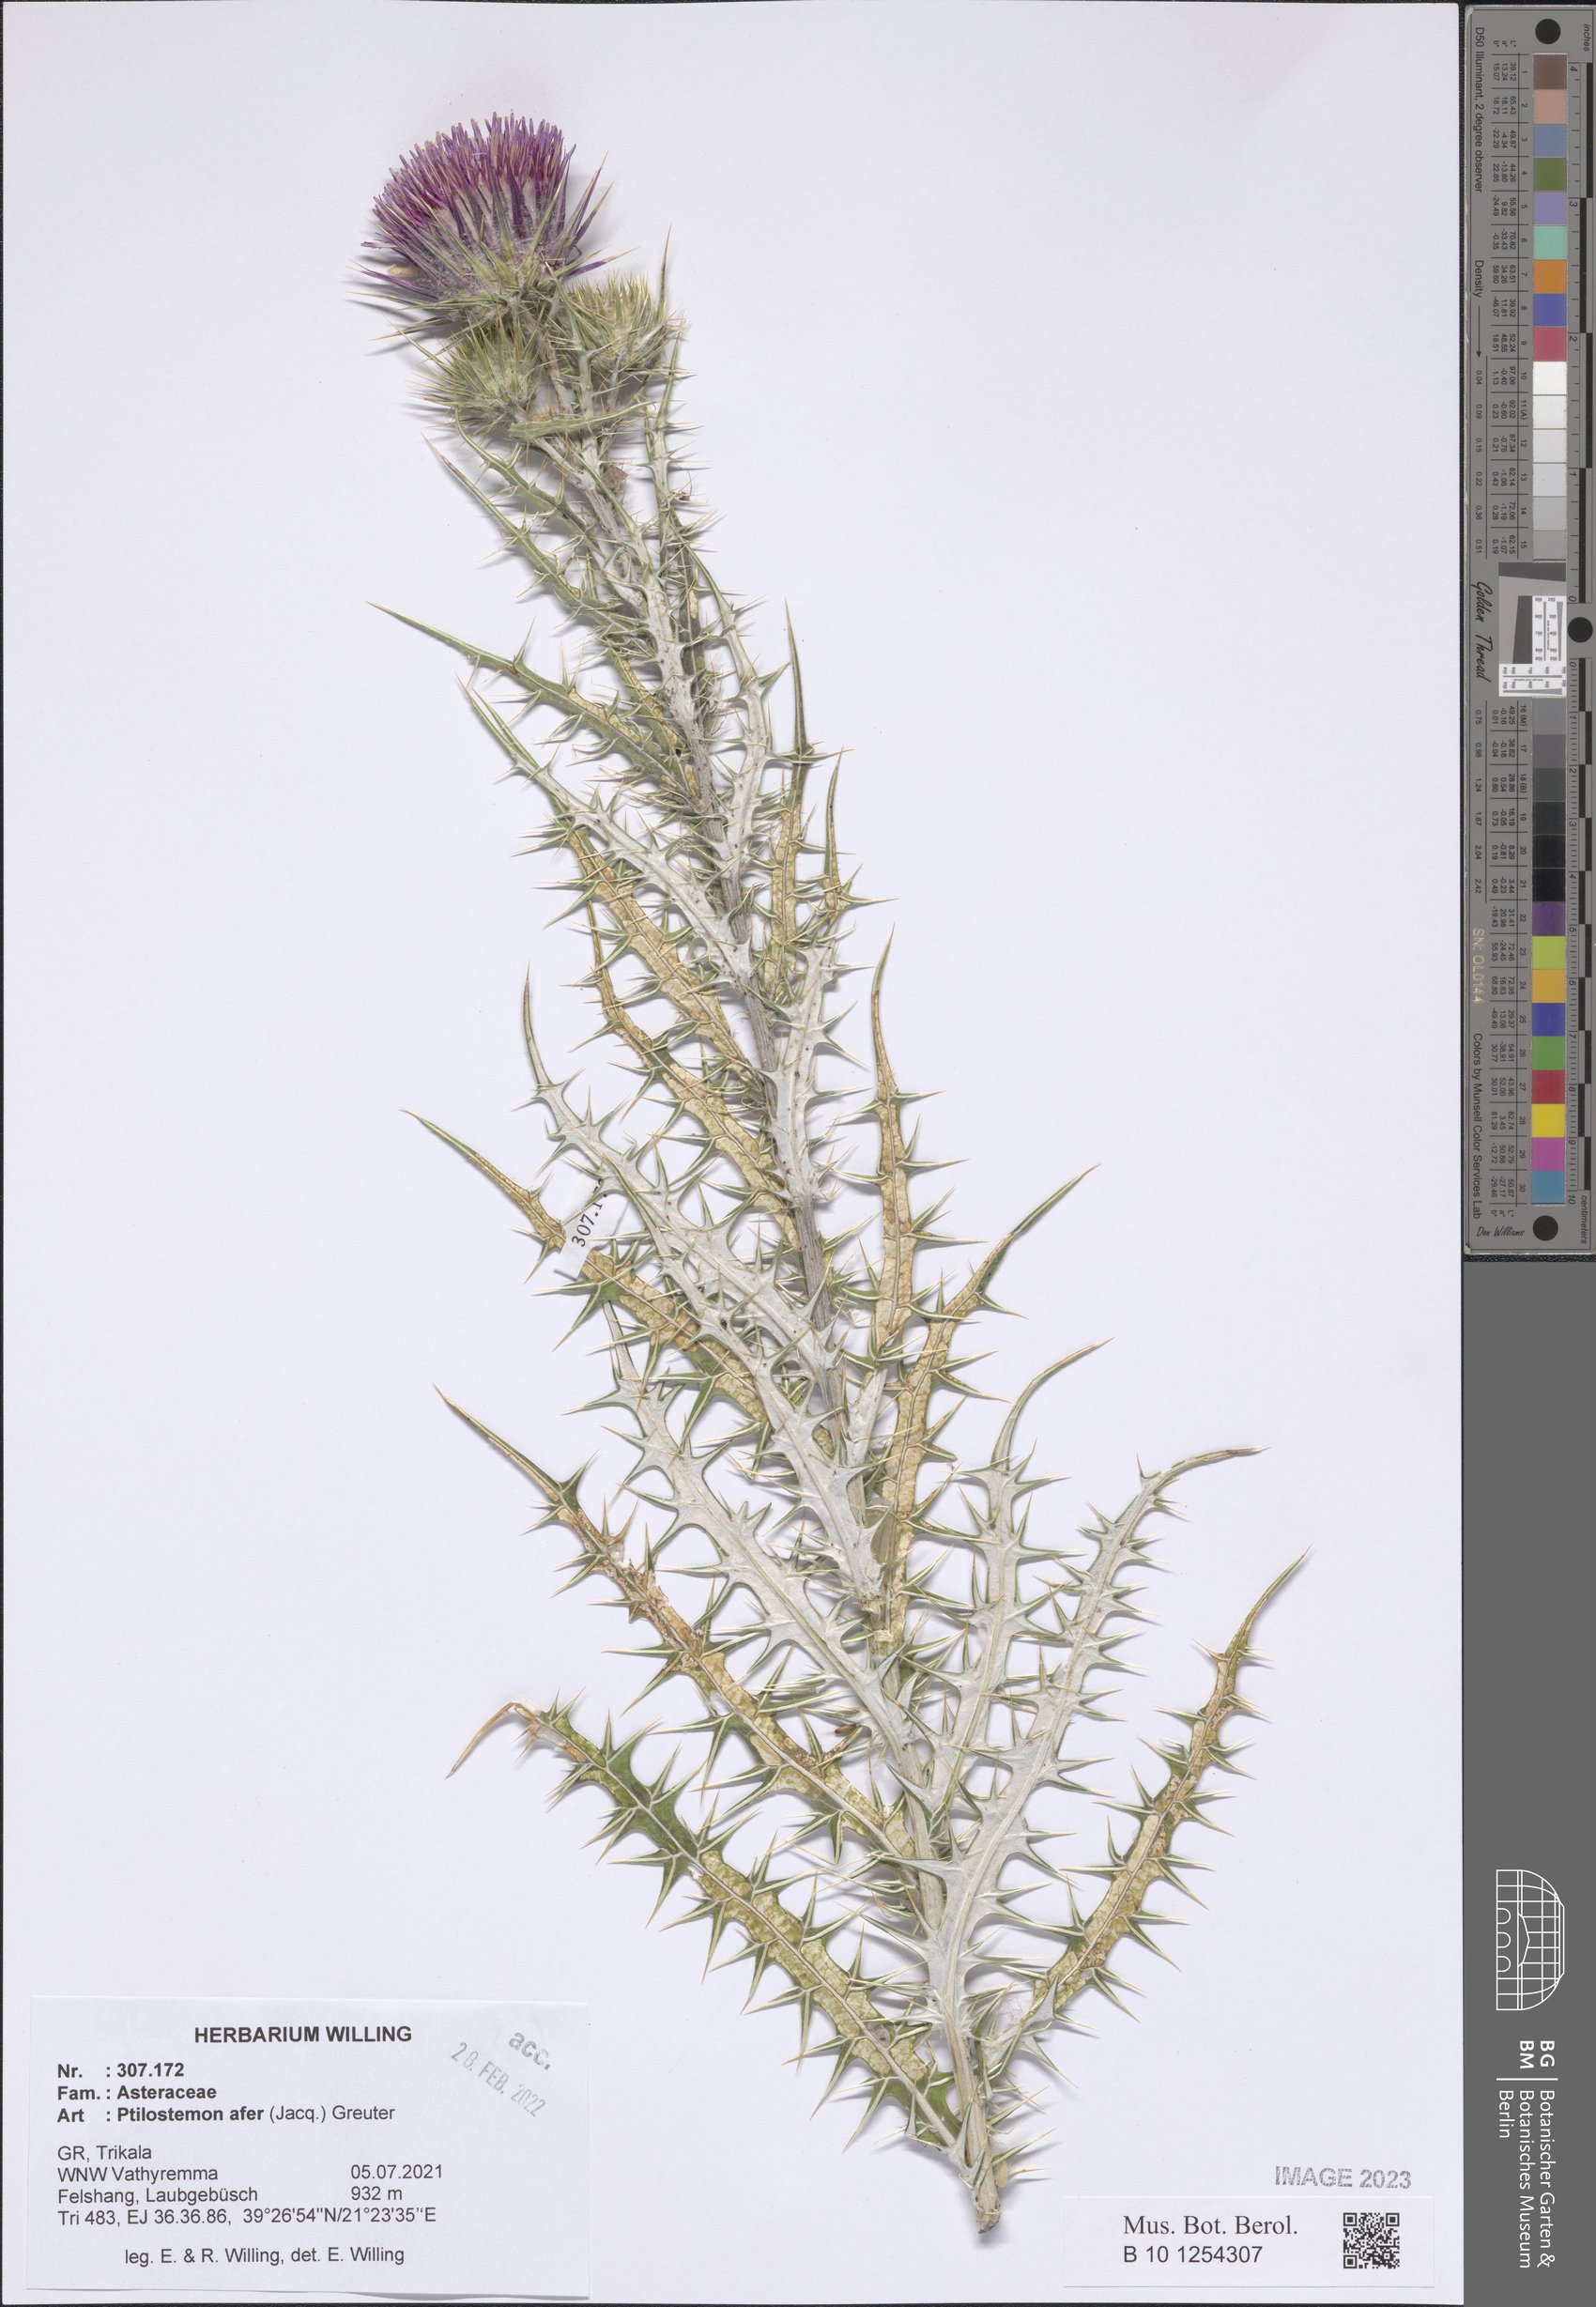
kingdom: Plantae
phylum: Tracheophyta
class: Magnoliopsida
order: Asterales
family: Asteraceae
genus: Ptilostemon
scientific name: Ptilostemon afer
